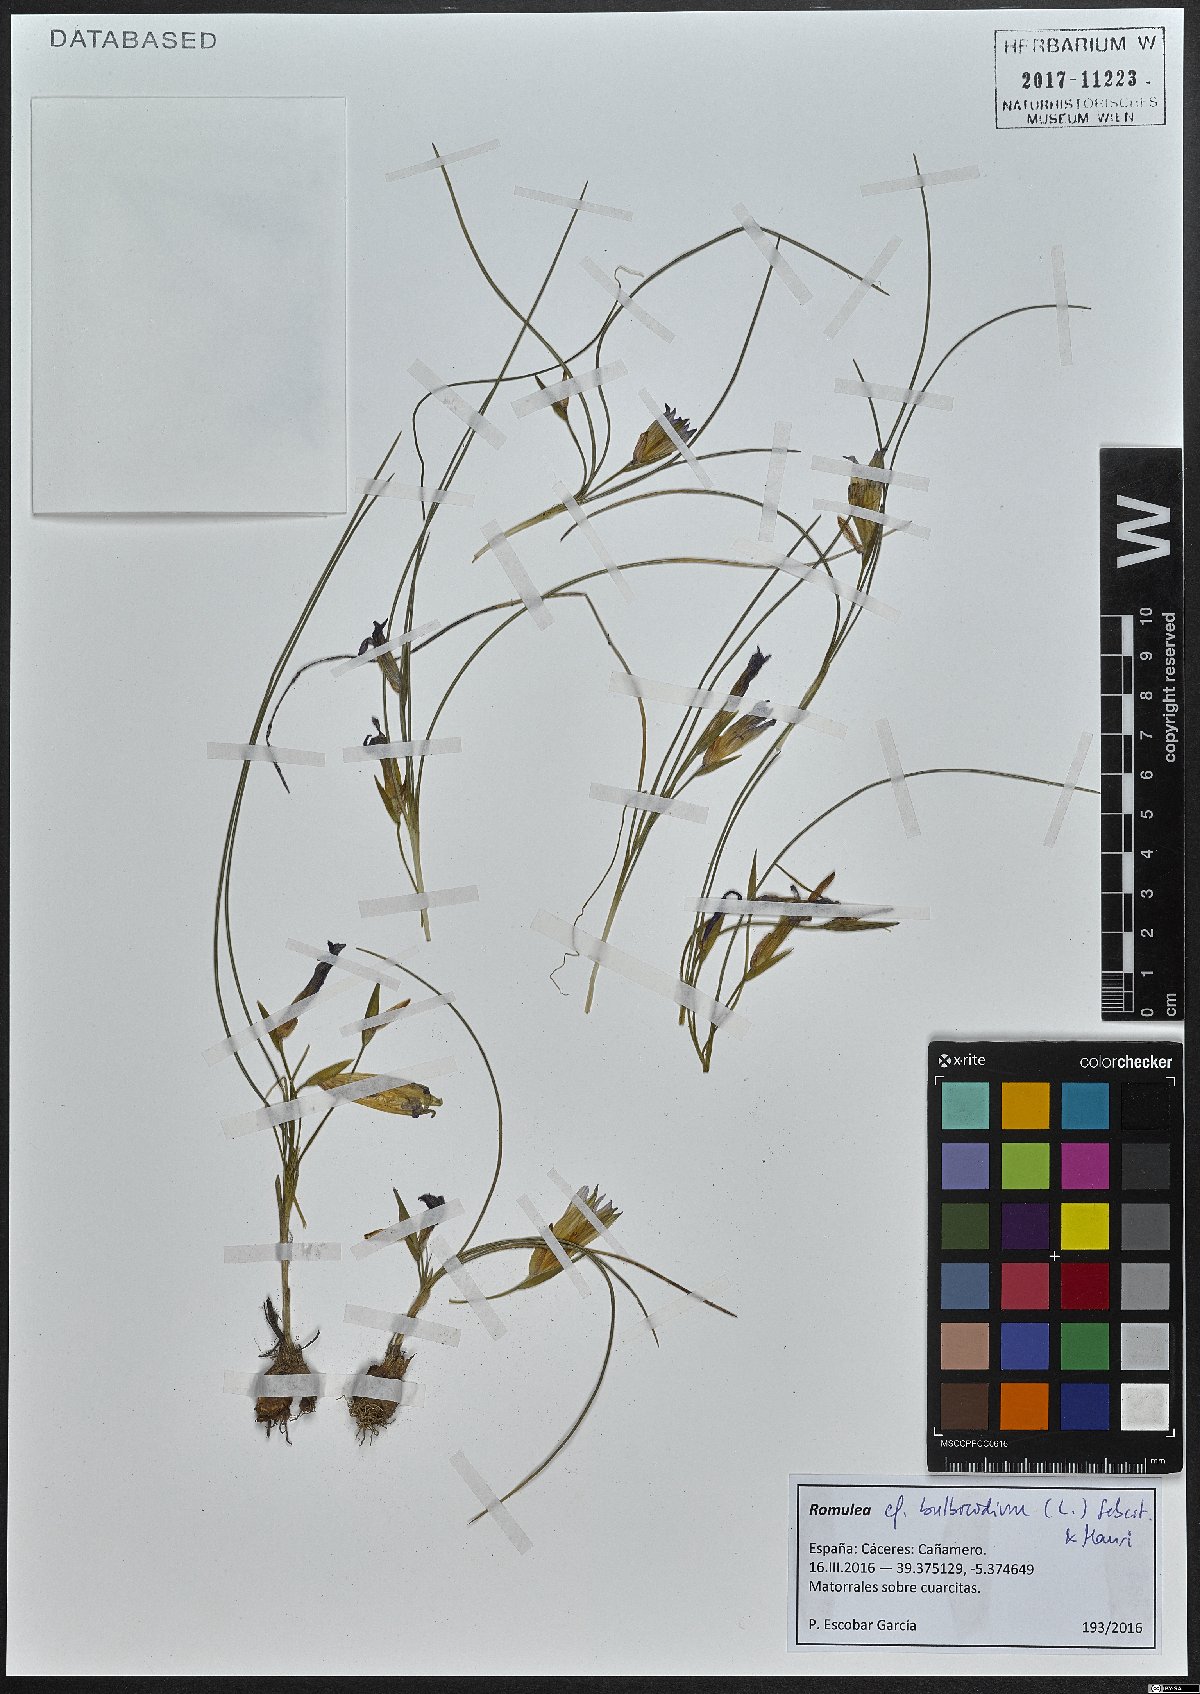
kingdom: Plantae
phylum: Tracheophyta
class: Liliopsida
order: Asparagales
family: Iridaceae
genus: Romulea
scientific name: Romulea bulbocodium
